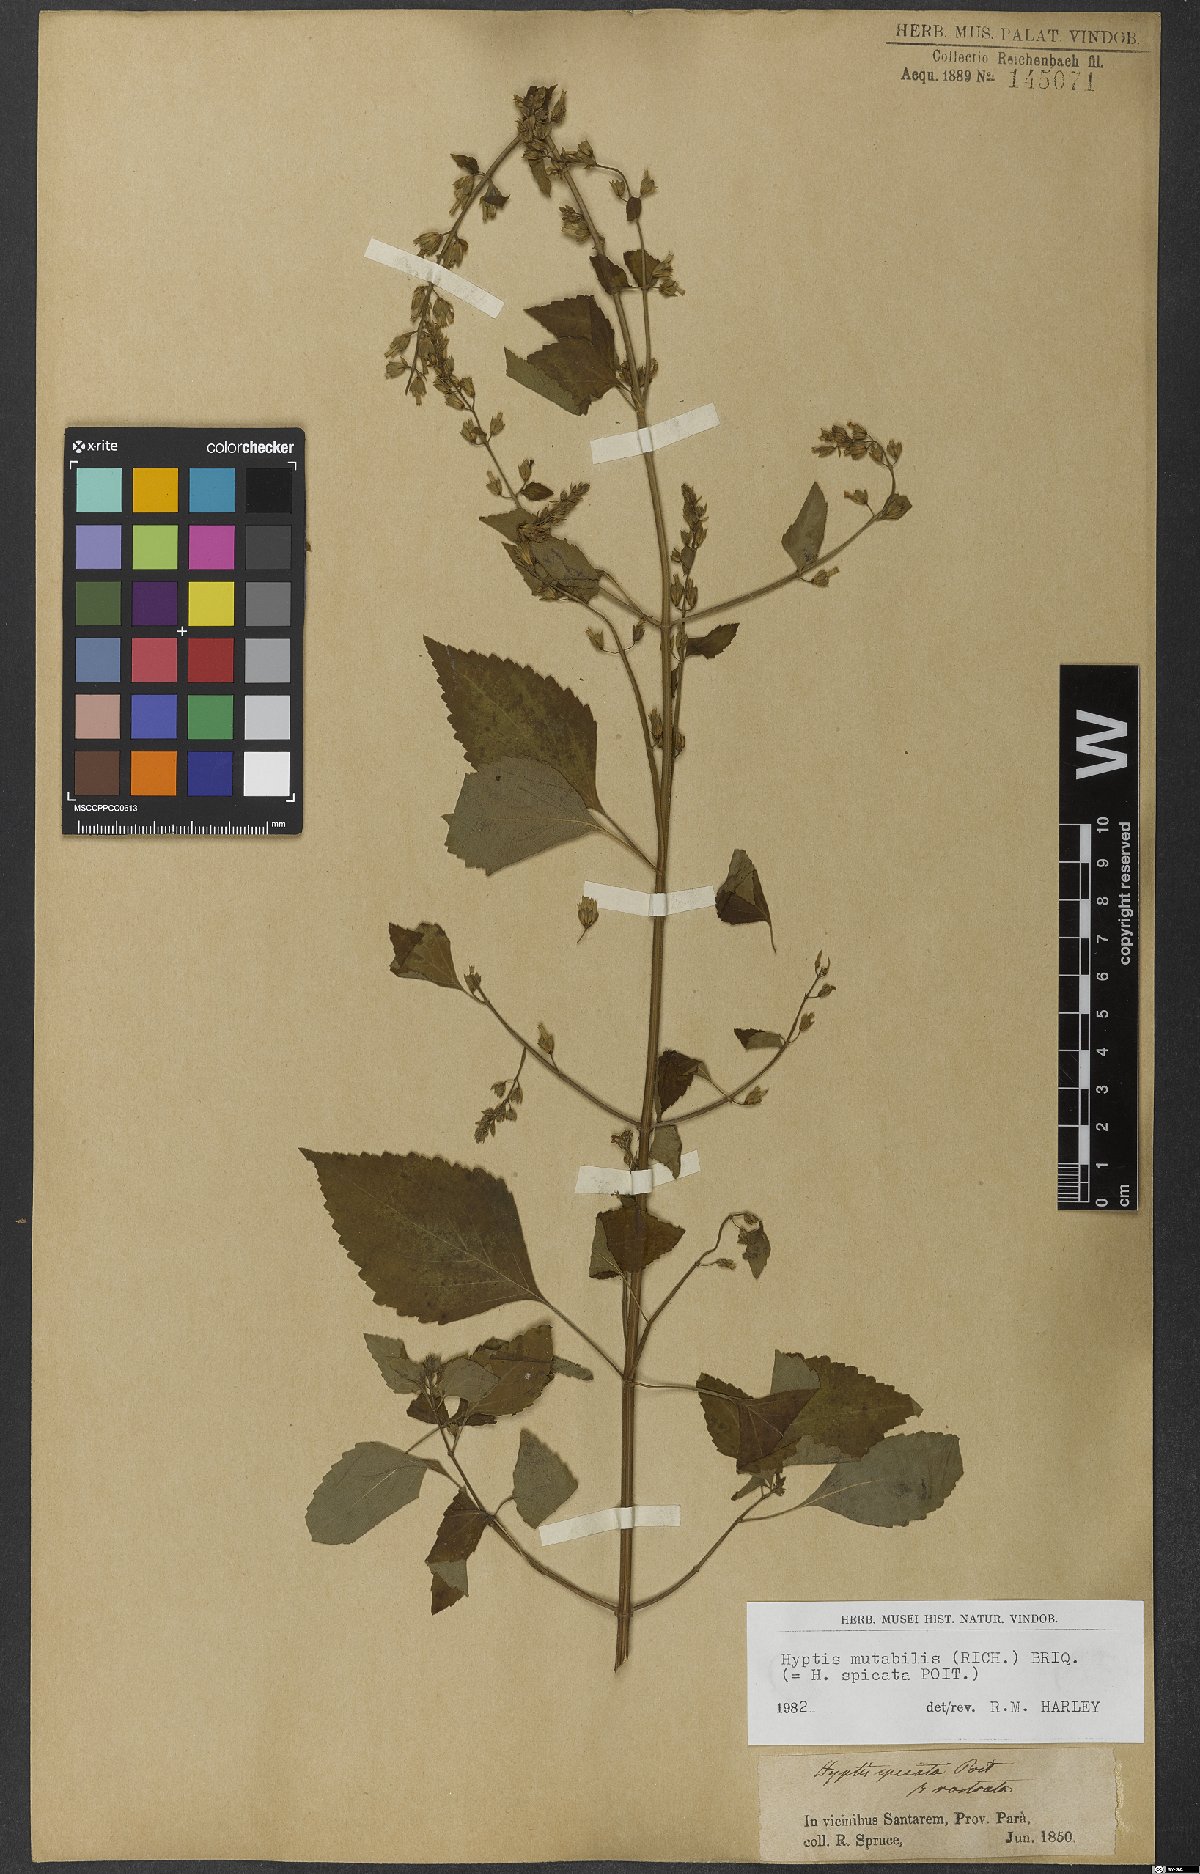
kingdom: Plantae
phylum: Tracheophyta
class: Magnoliopsida
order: Lamiales
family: Lamiaceae
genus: Cantinoa
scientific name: Cantinoa mutabilis
